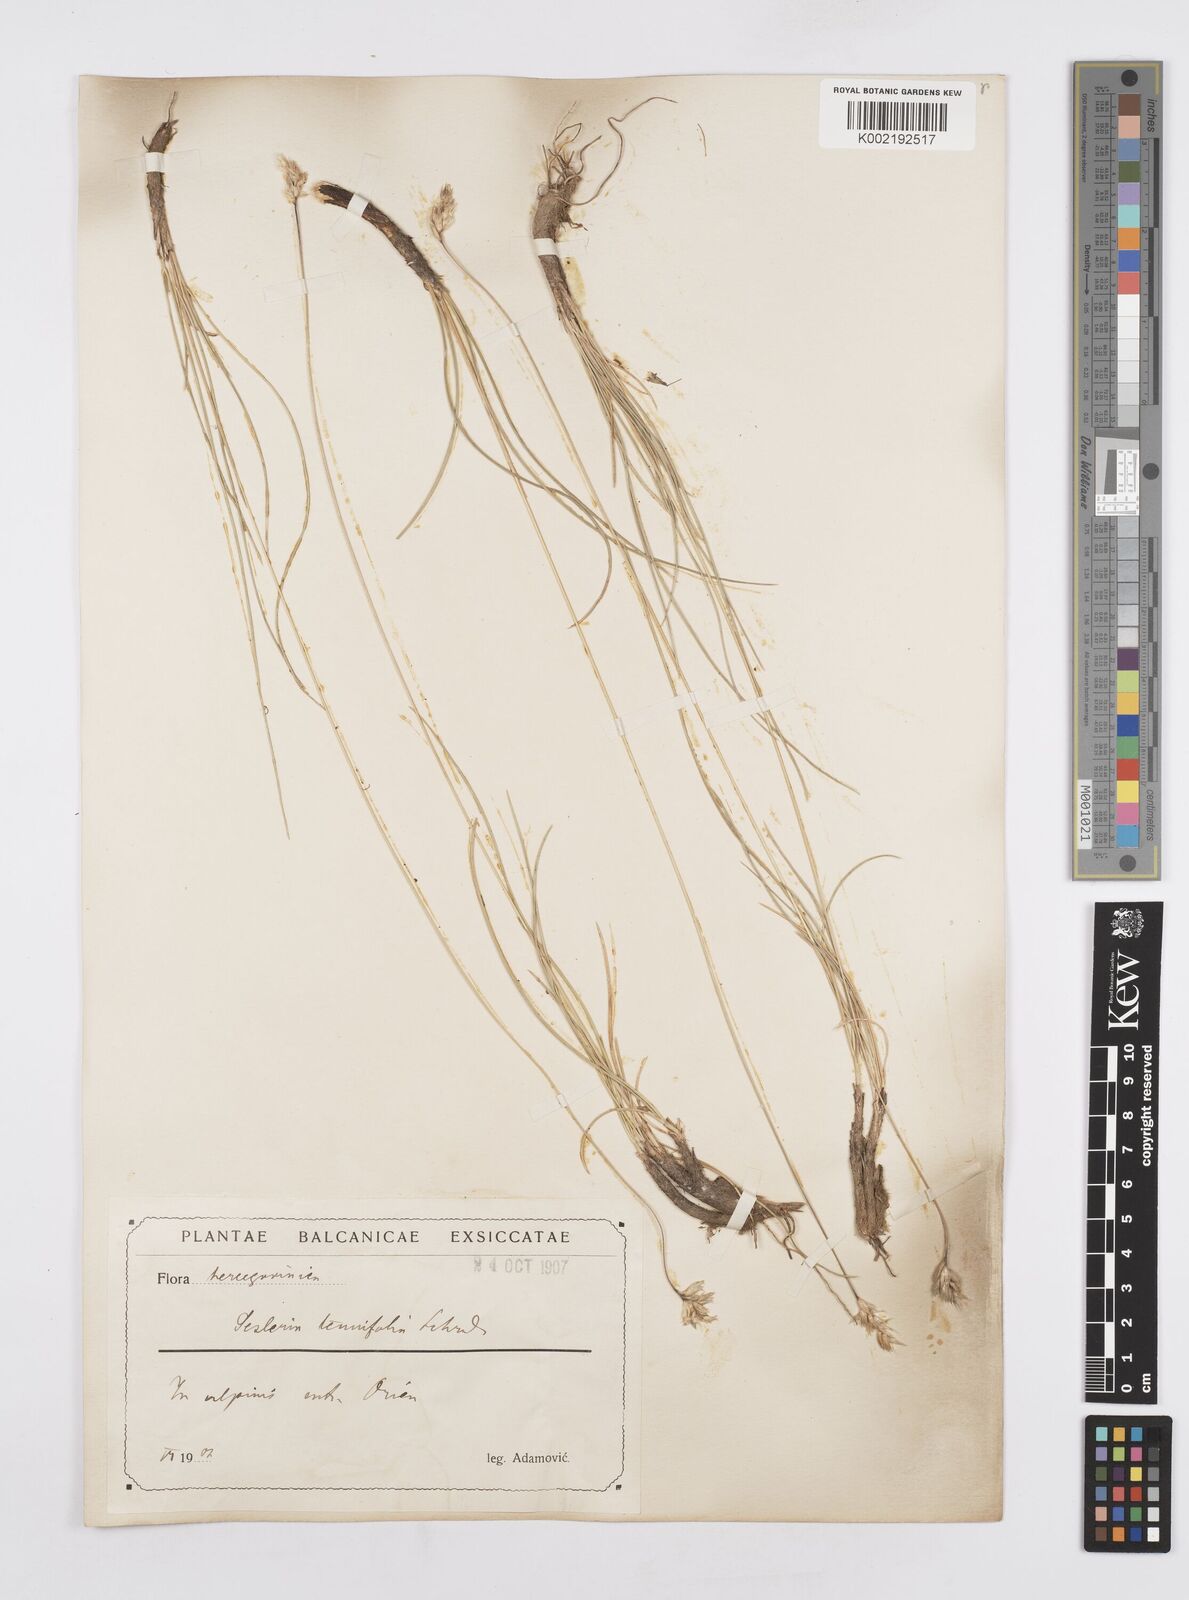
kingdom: Plantae
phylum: Tracheophyta
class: Liliopsida
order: Poales
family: Poaceae
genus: Sesleria
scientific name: Sesleria juncifolia
